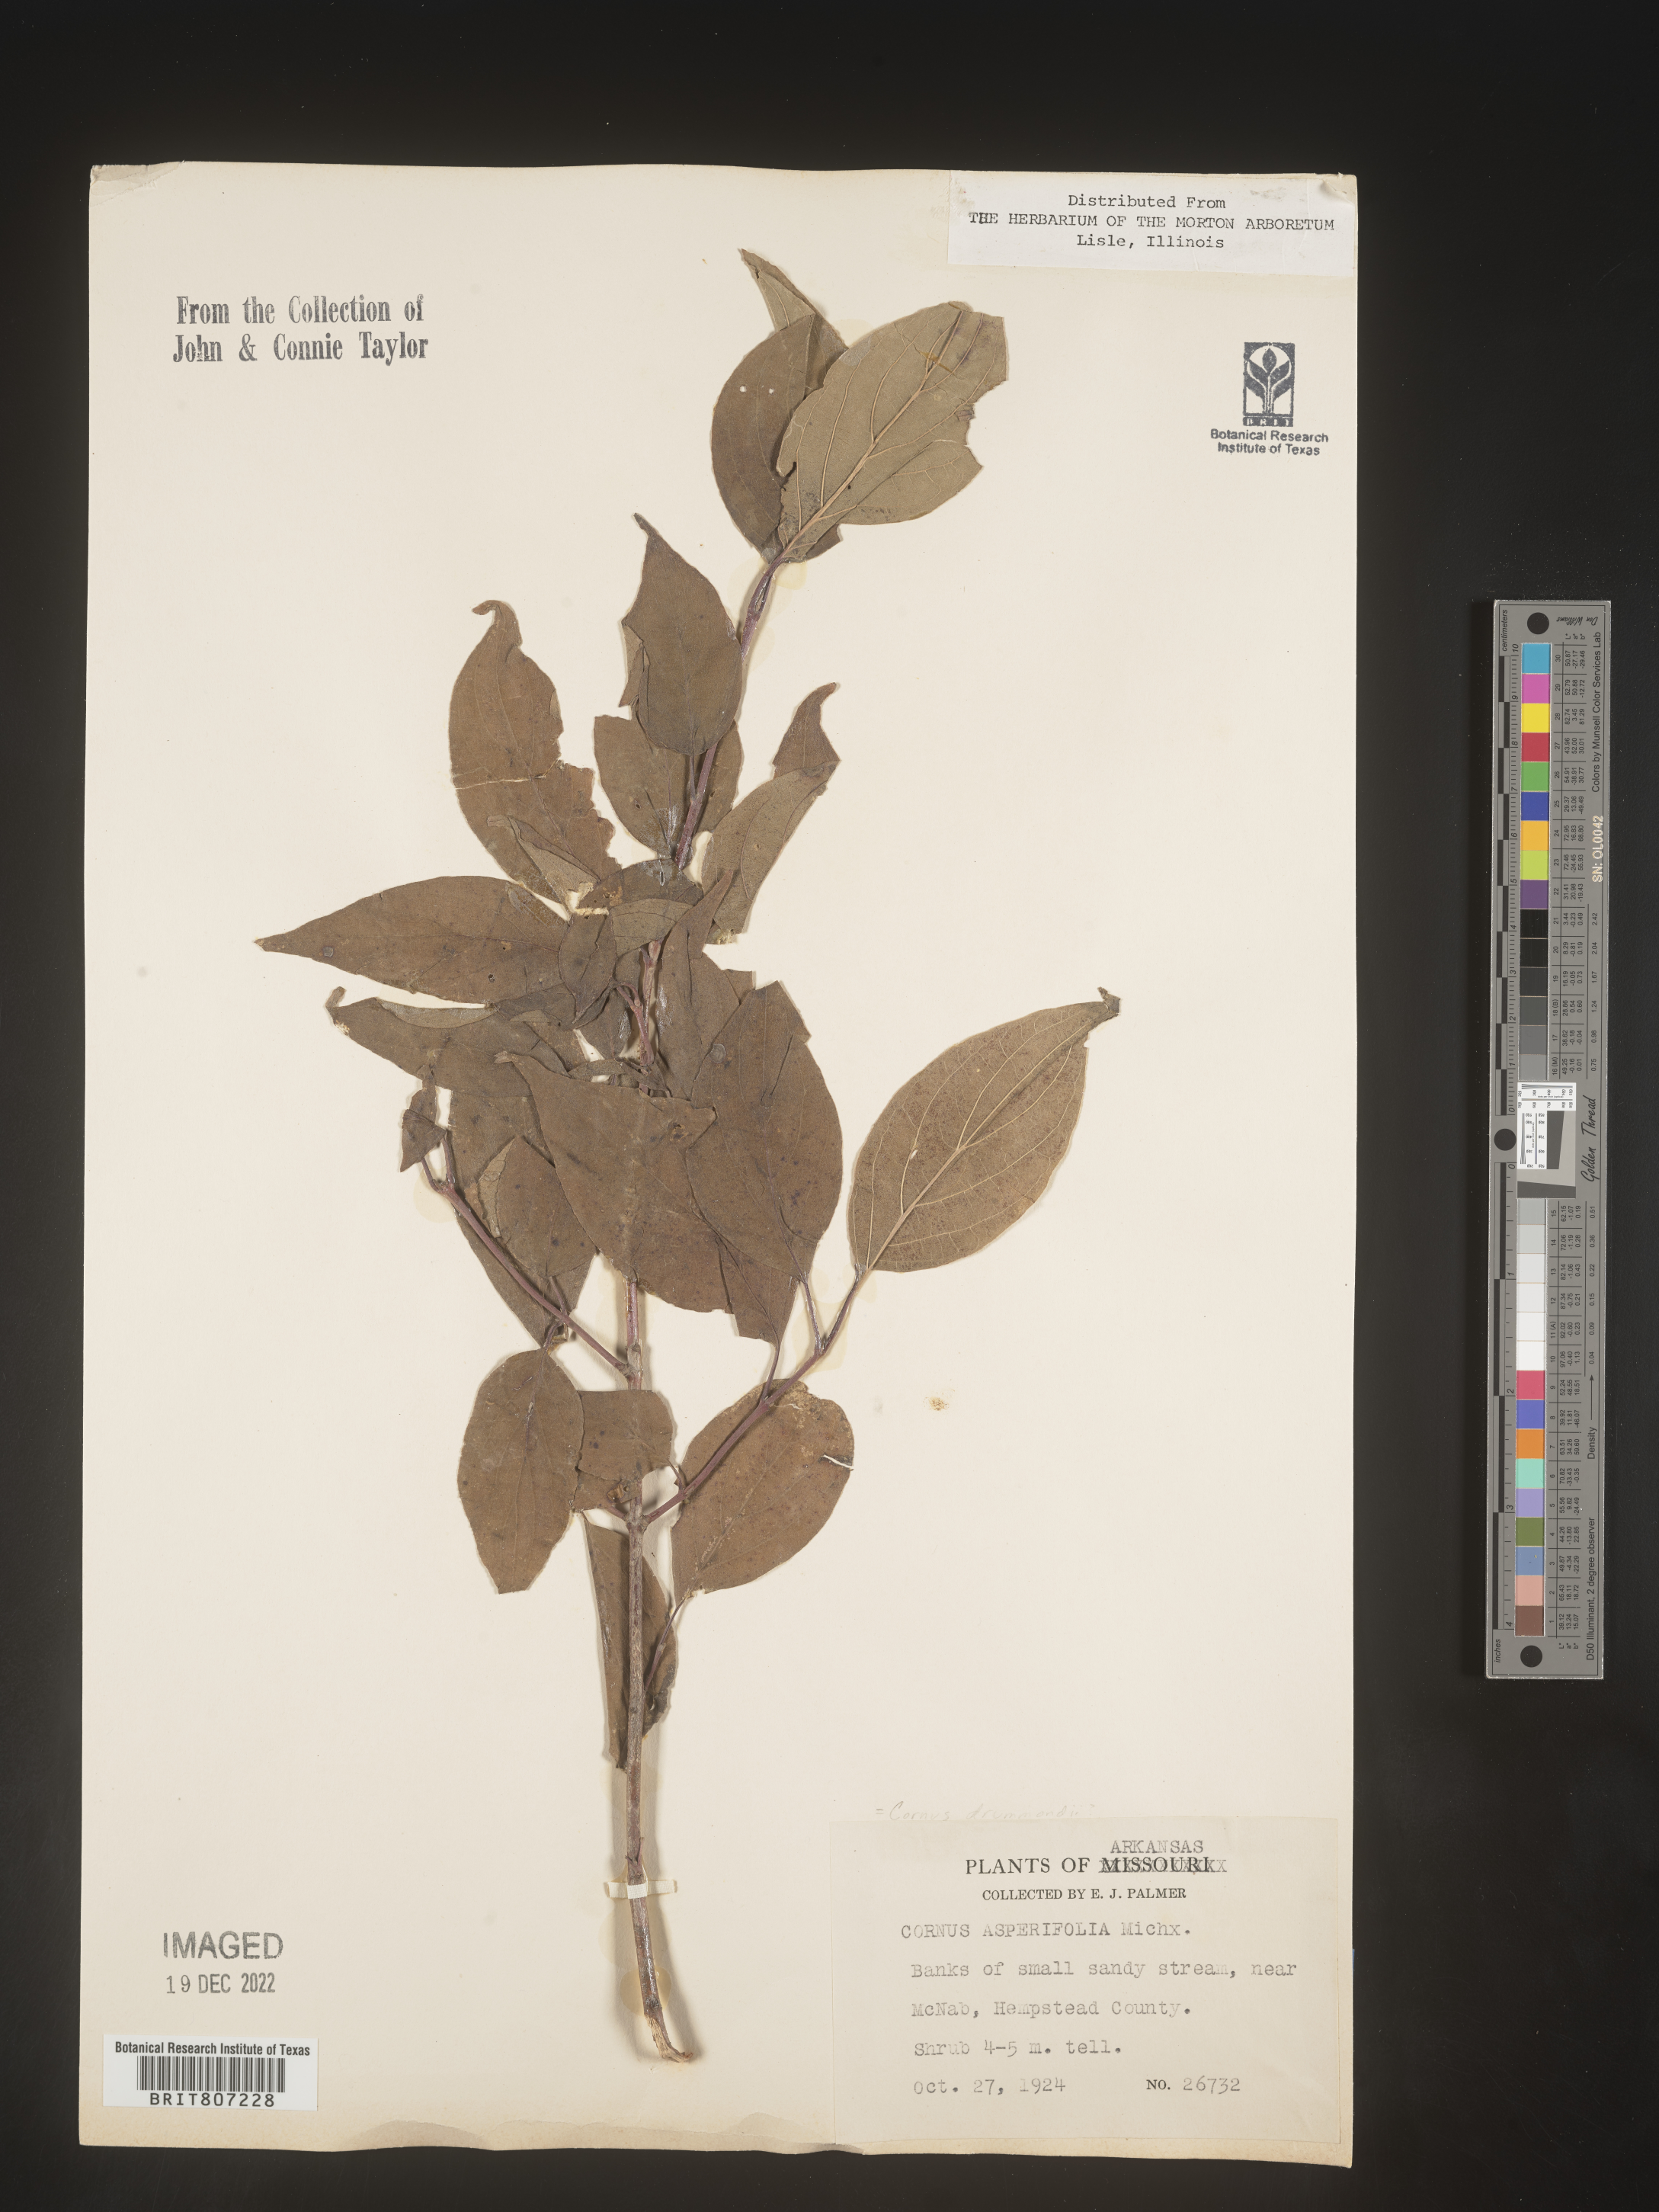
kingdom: Plantae
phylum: Tracheophyta
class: Magnoliopsida
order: Cornales
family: Cornaceae
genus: Cornus
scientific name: Cornus asperifolia
